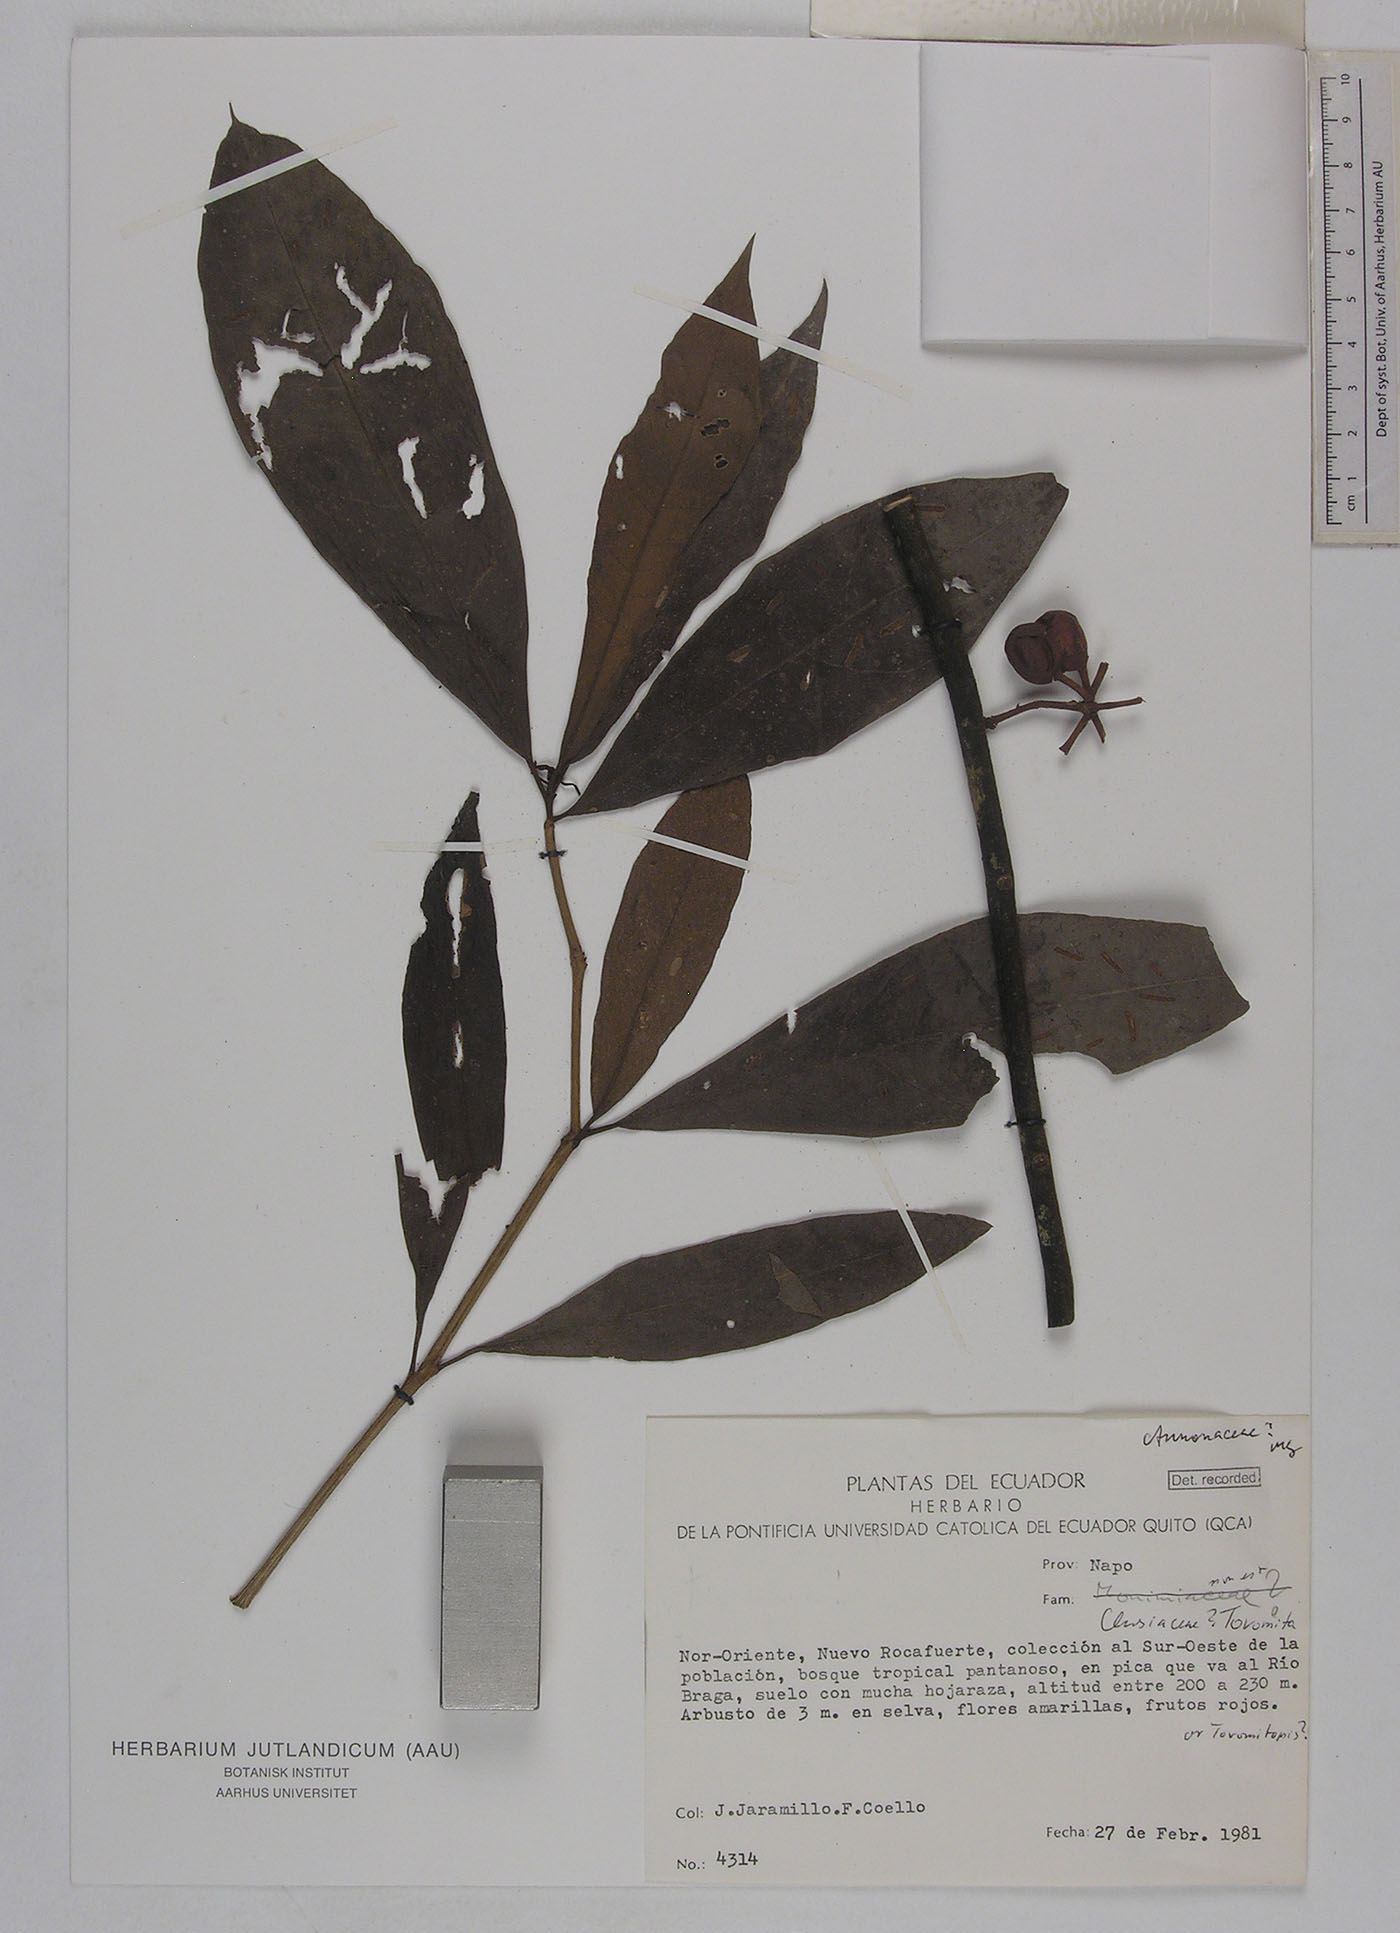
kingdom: Plantae
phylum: Tracheophyta
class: Magnoliopsida
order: Magnoliales
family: Annonaceae
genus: Unonopsis
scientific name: Unonopsis veneficiorum
